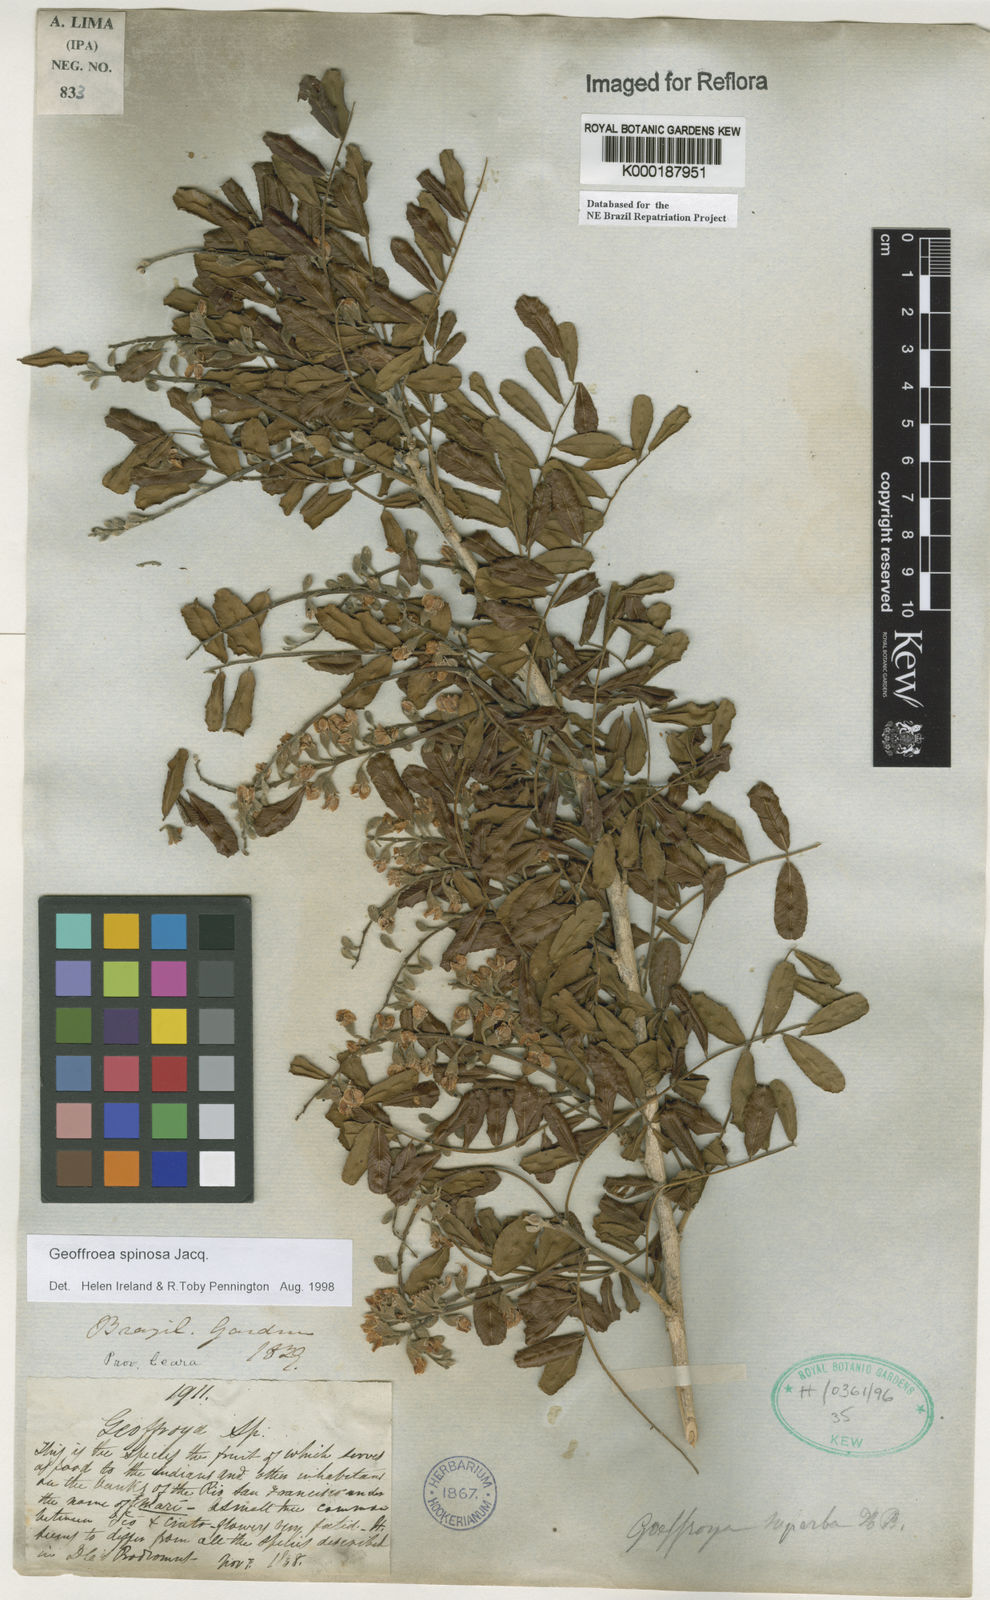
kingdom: Plantae
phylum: Tracheophyta
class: Magnoliopsida
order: Fabales
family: Fabaceae
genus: Geoffroea
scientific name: Geoffroea spinosa
